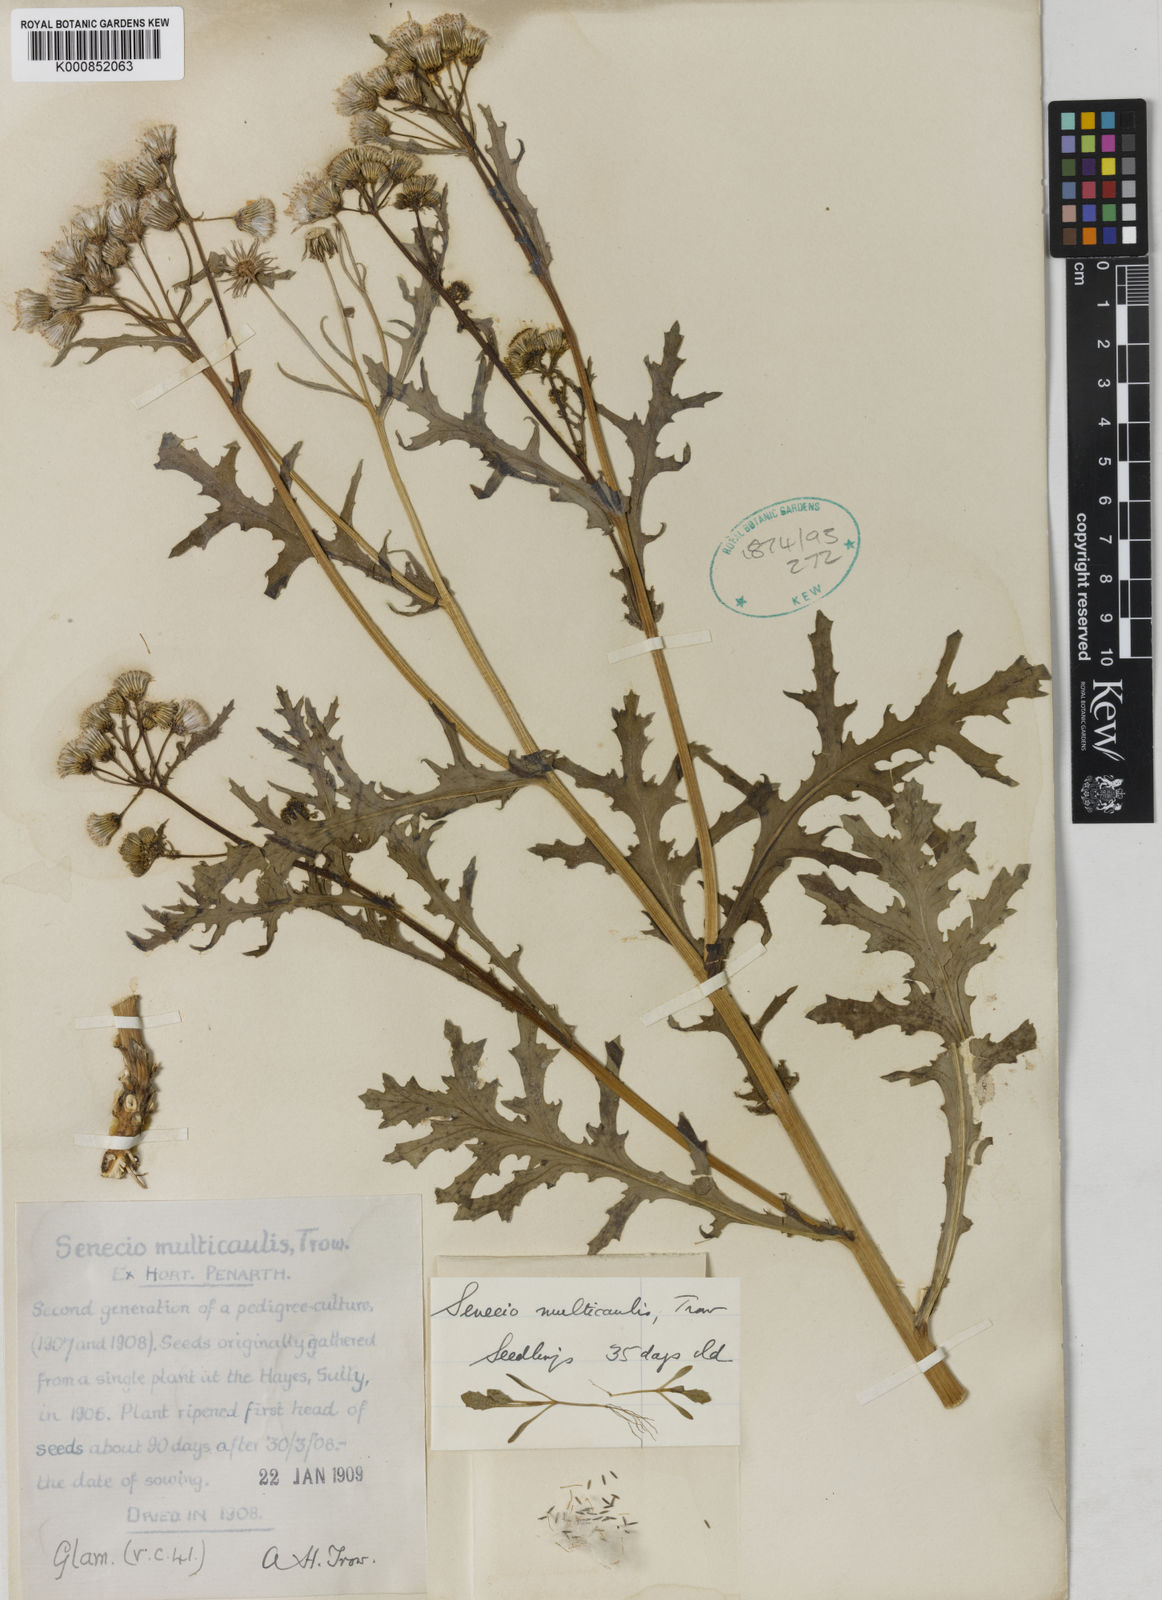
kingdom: Plantae
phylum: Tracheophyta
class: Magnoliopsida
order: Asterales
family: Asteraceae
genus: Senecio
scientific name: Senecio vulgaris
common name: Old-man-in-the-spring
